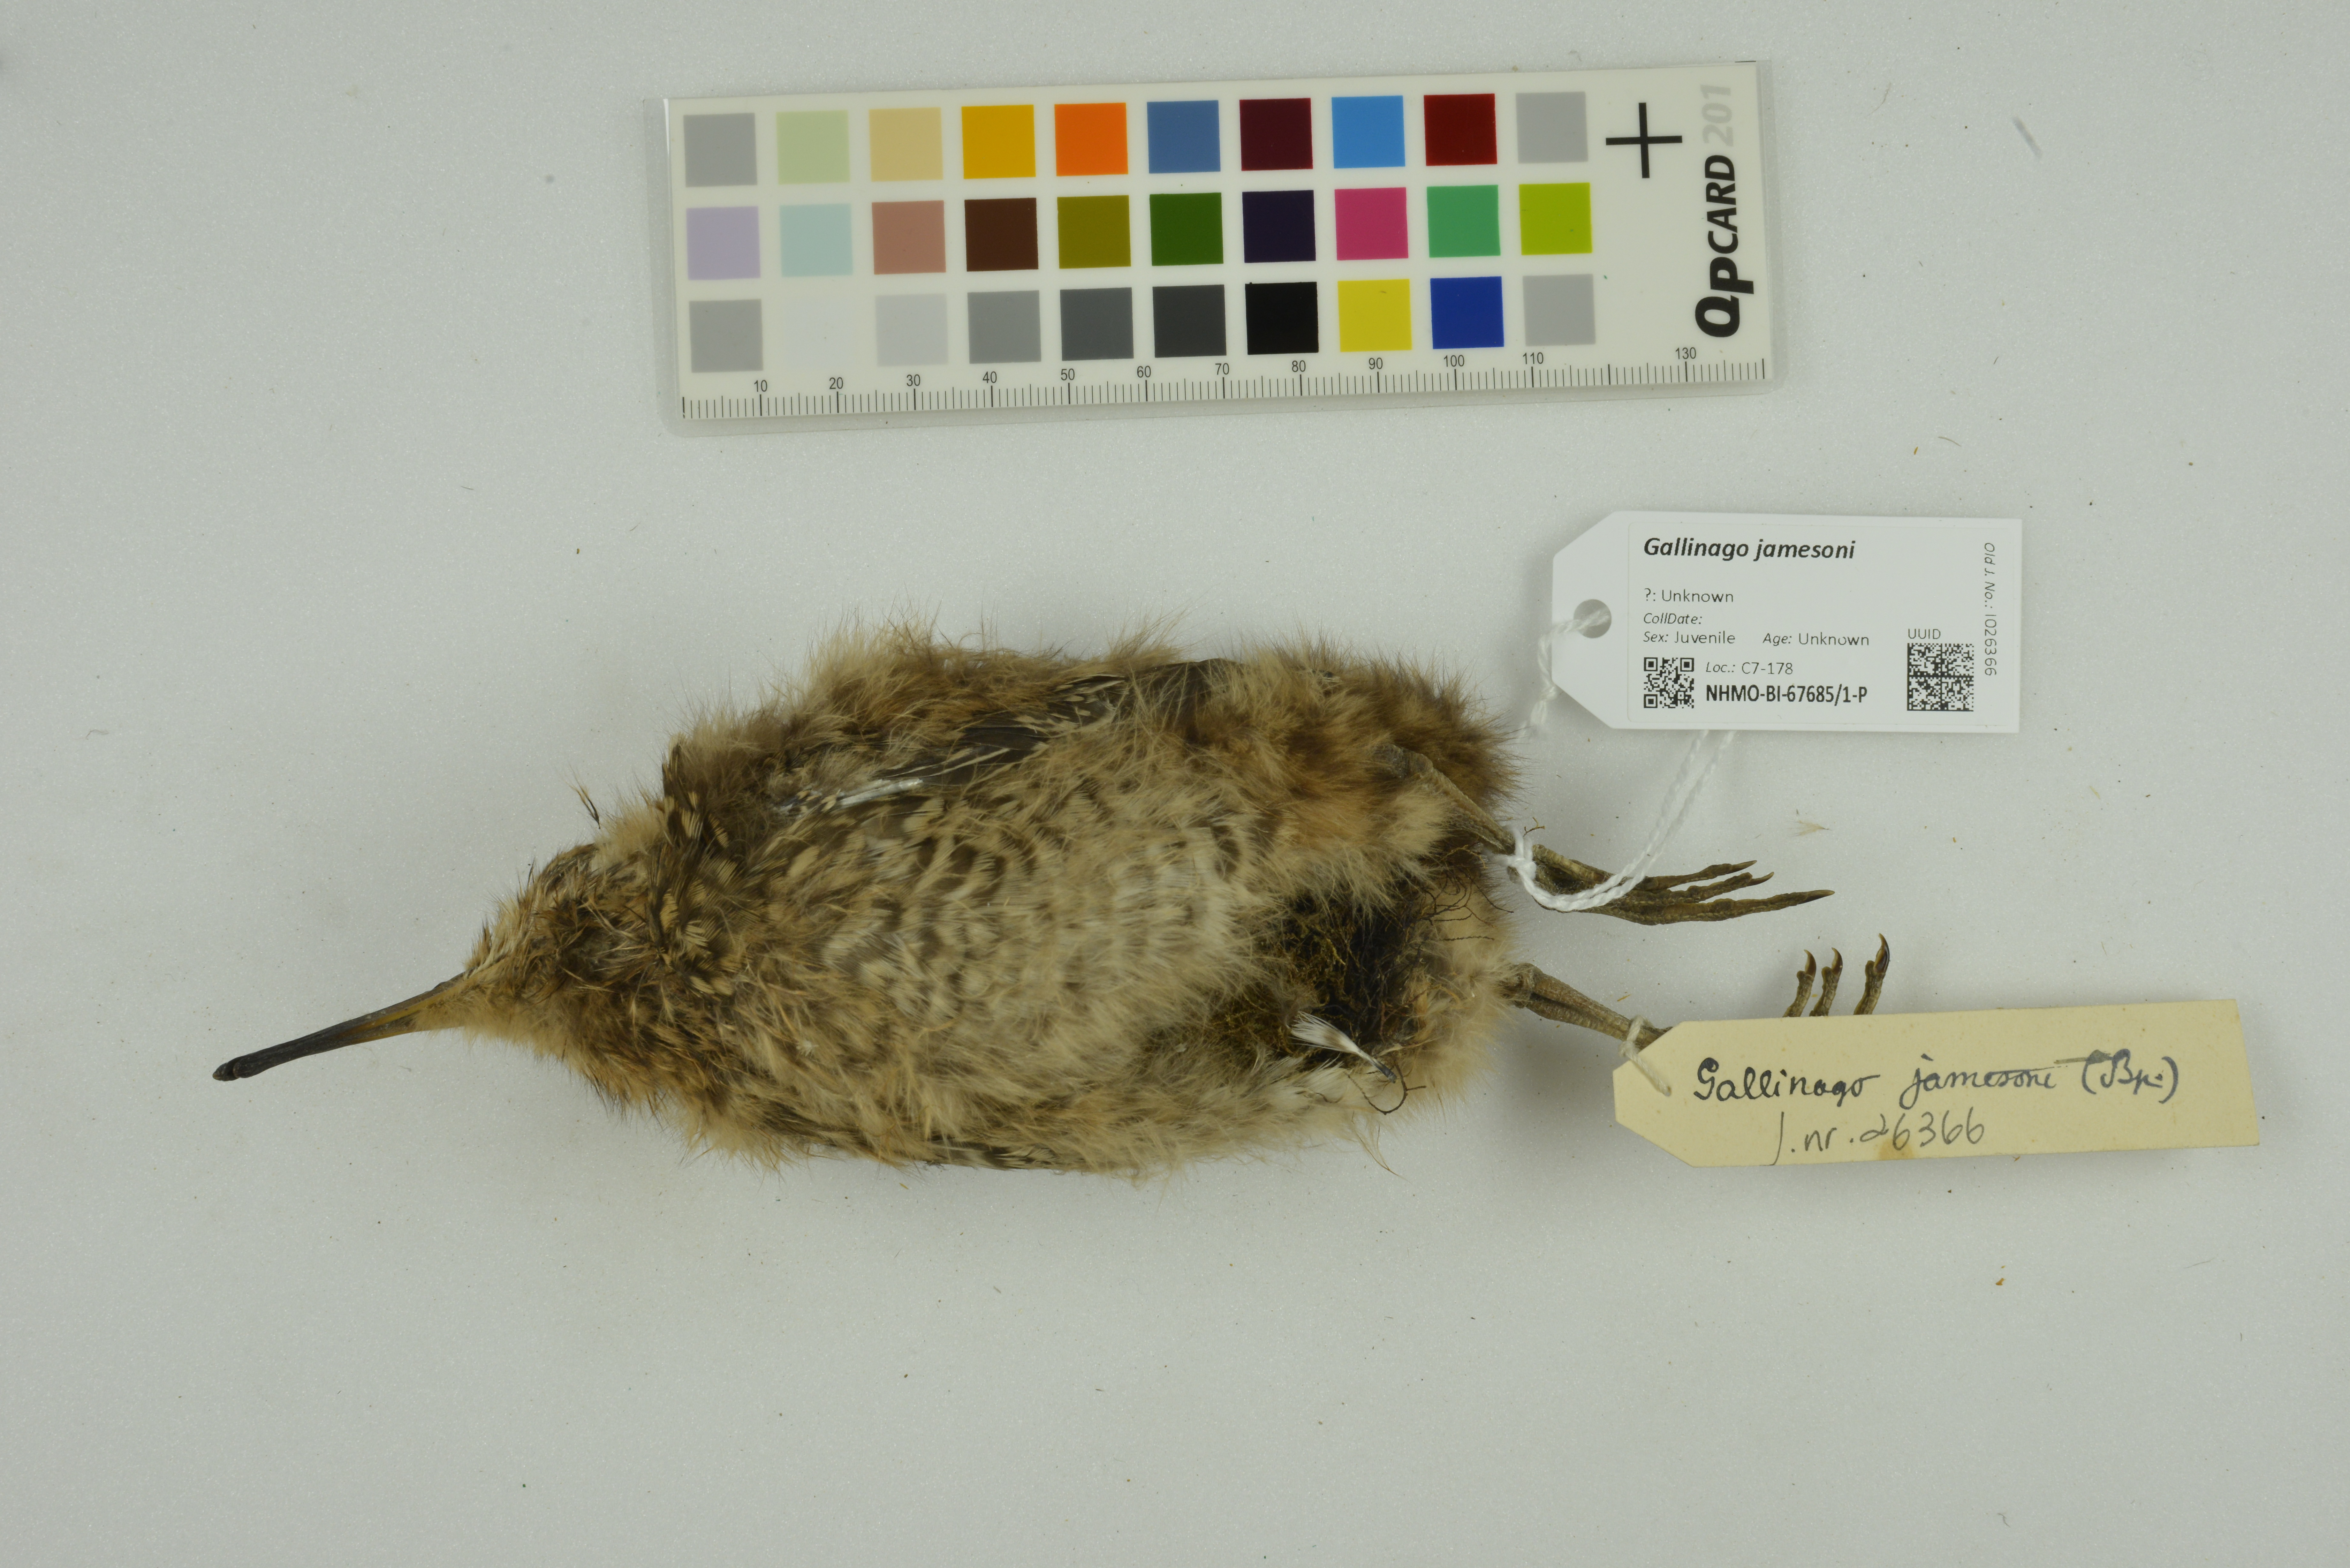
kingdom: Animalia
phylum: Chordata
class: Aves
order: Charadriiformes
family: Scolopacidae
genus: Gallinago
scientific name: Gallinago jamesoni
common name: Andean snipe
